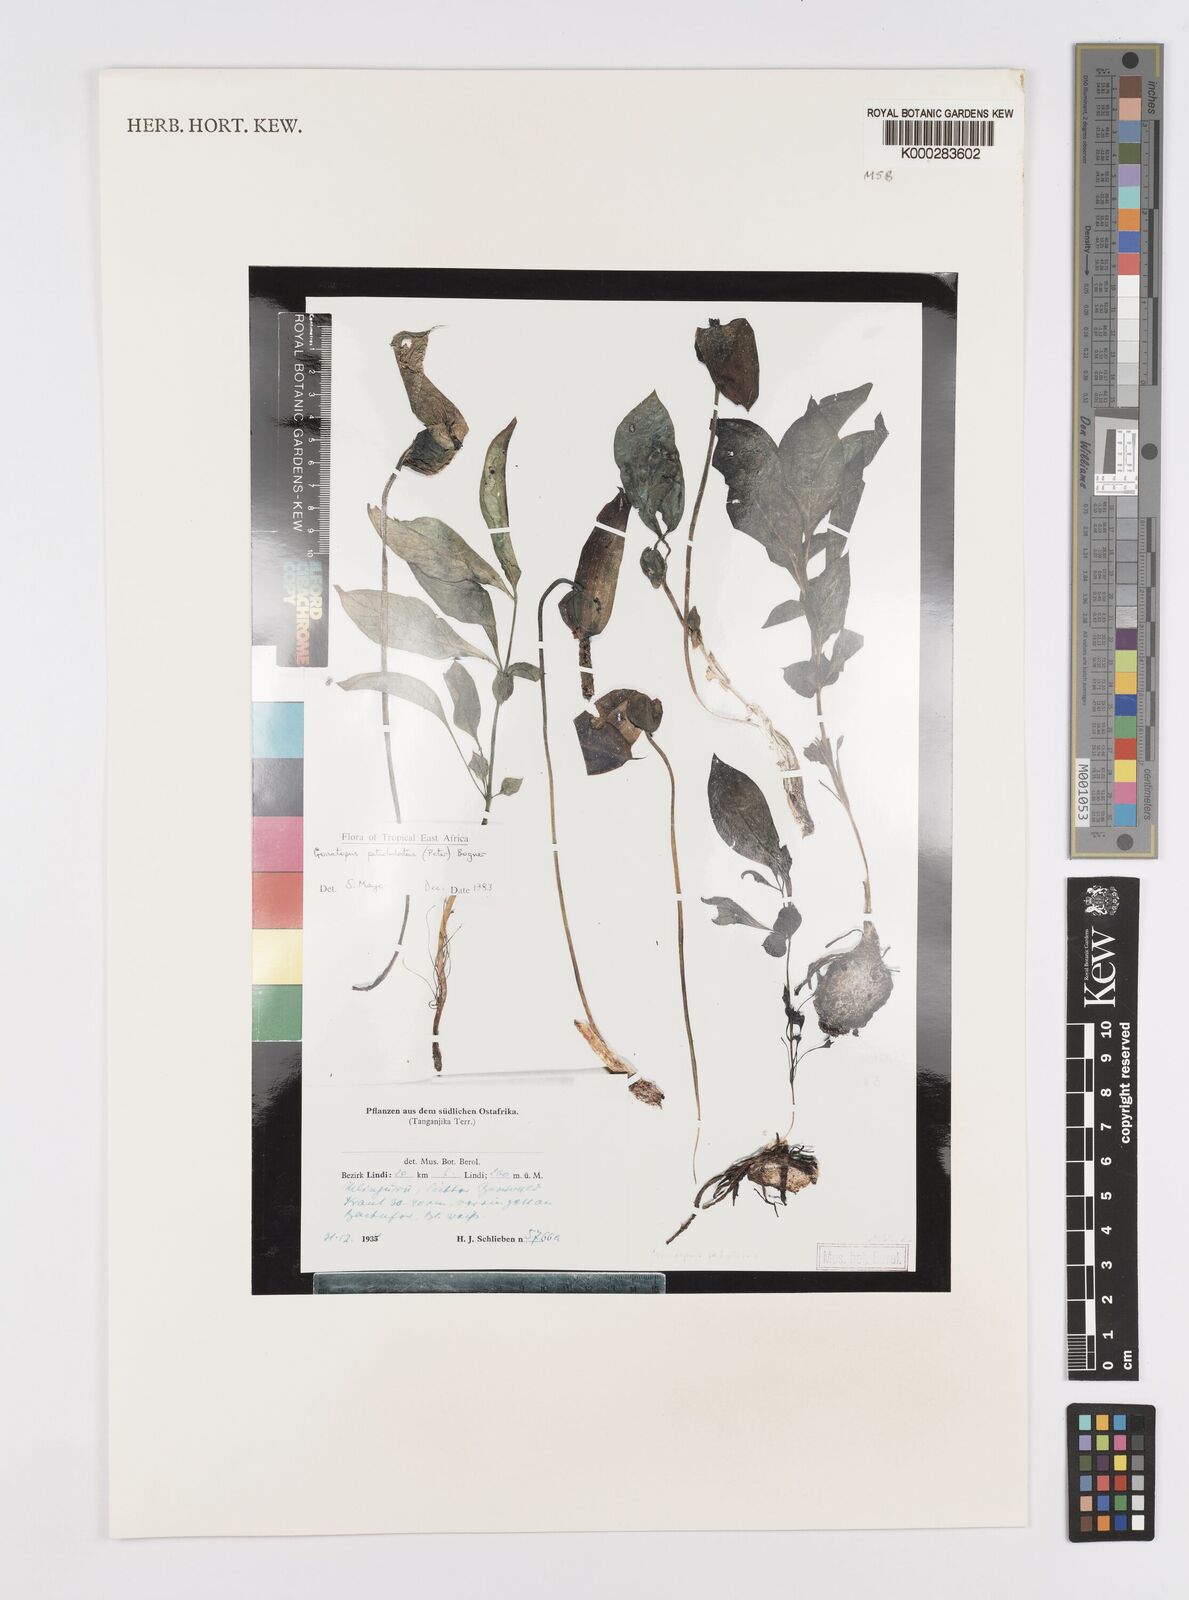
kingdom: Plantae
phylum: Tracheophyta
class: Liliopsida
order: Alismatales
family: Araceae
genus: Gonatopus
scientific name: Gonatopus petiolulatus
